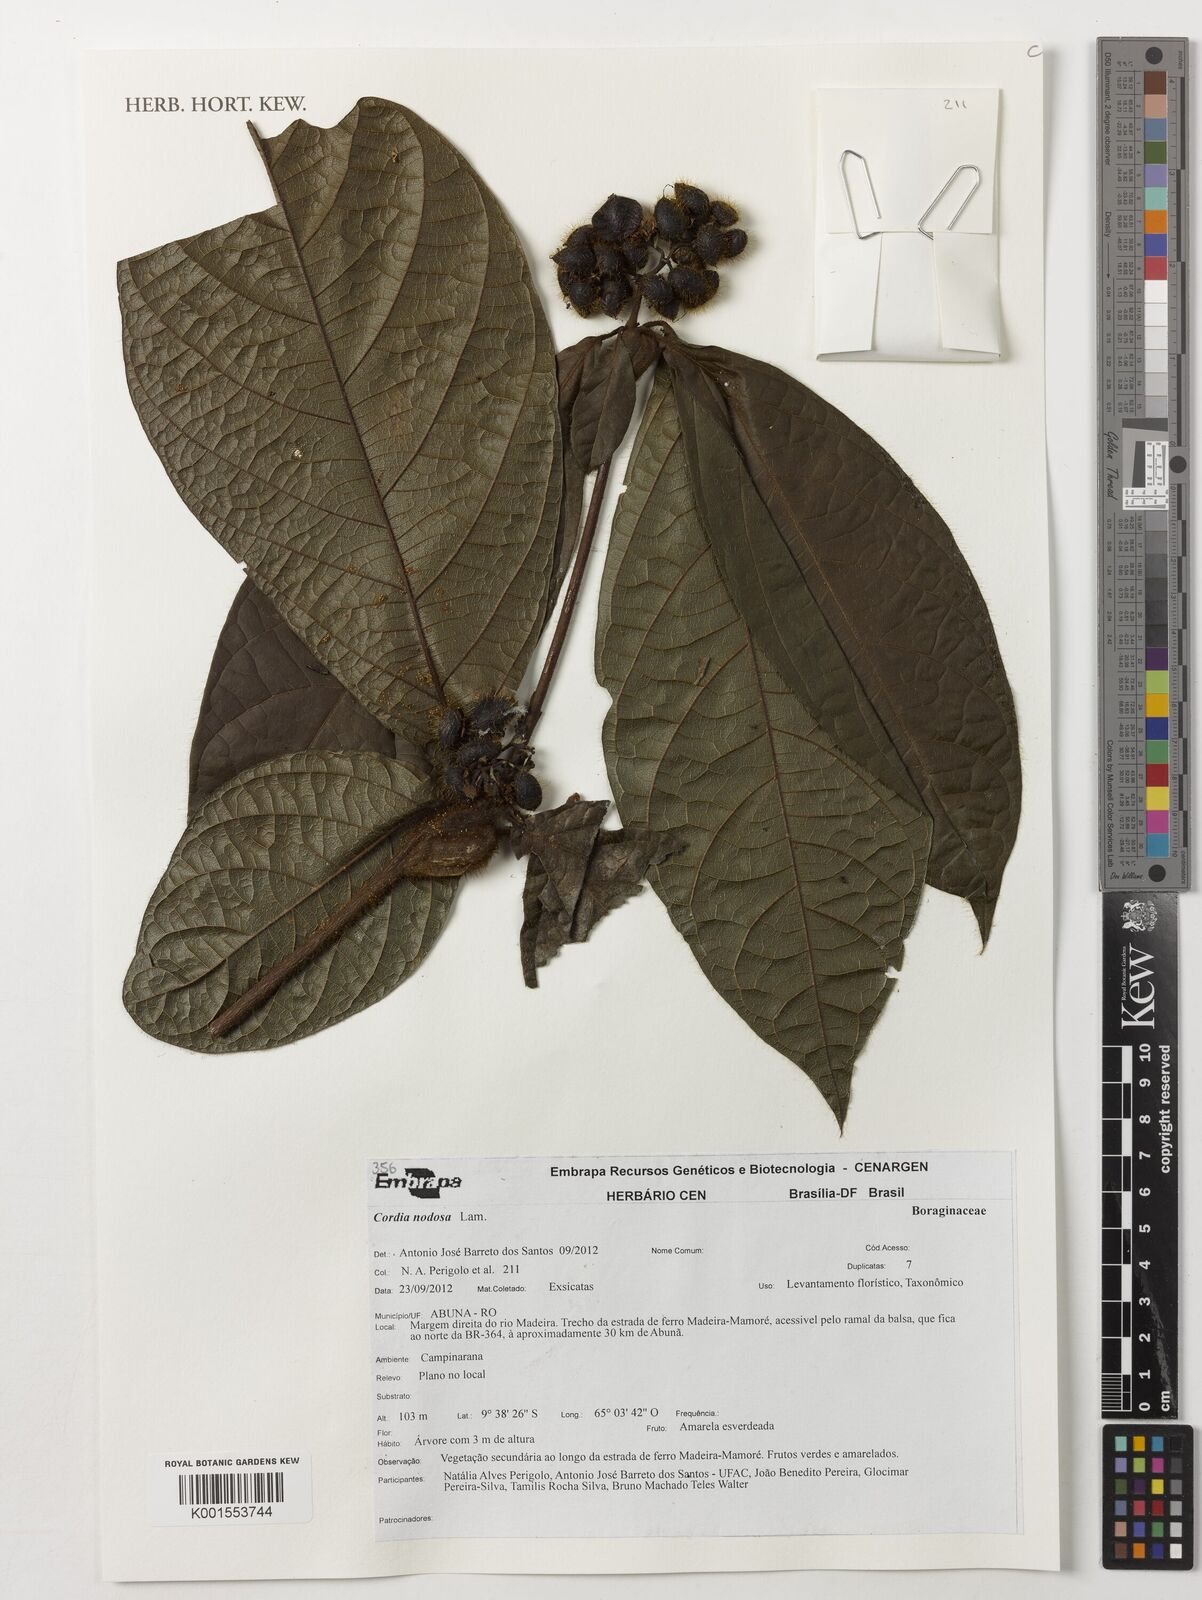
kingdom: Plantae
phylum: Tracheophyta
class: Magnoliopsida
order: Boraginales
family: Cordiaceae
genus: Cordia
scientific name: Cordia nodosa
